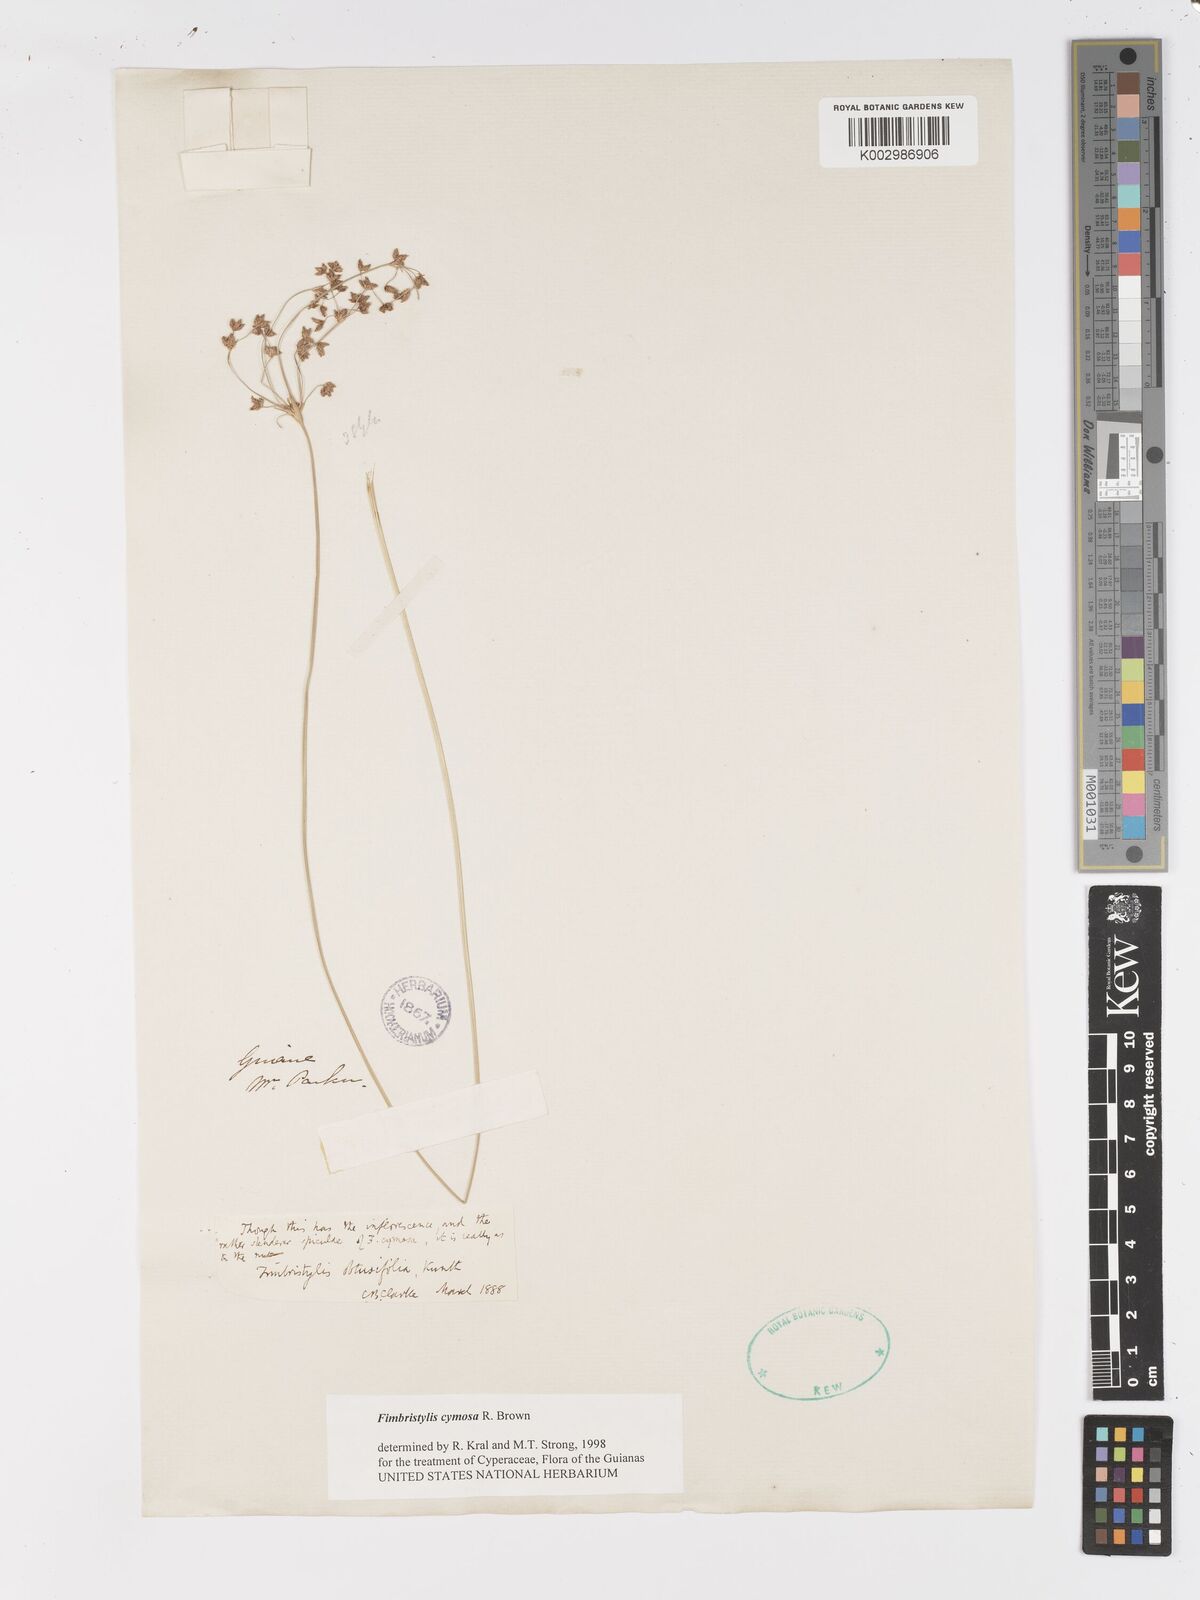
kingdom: Plantae
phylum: Tracheophyta
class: Liliopsida
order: Poales
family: Cyperaceae
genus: Fimbristylis
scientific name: Fimbristylis cymosa
